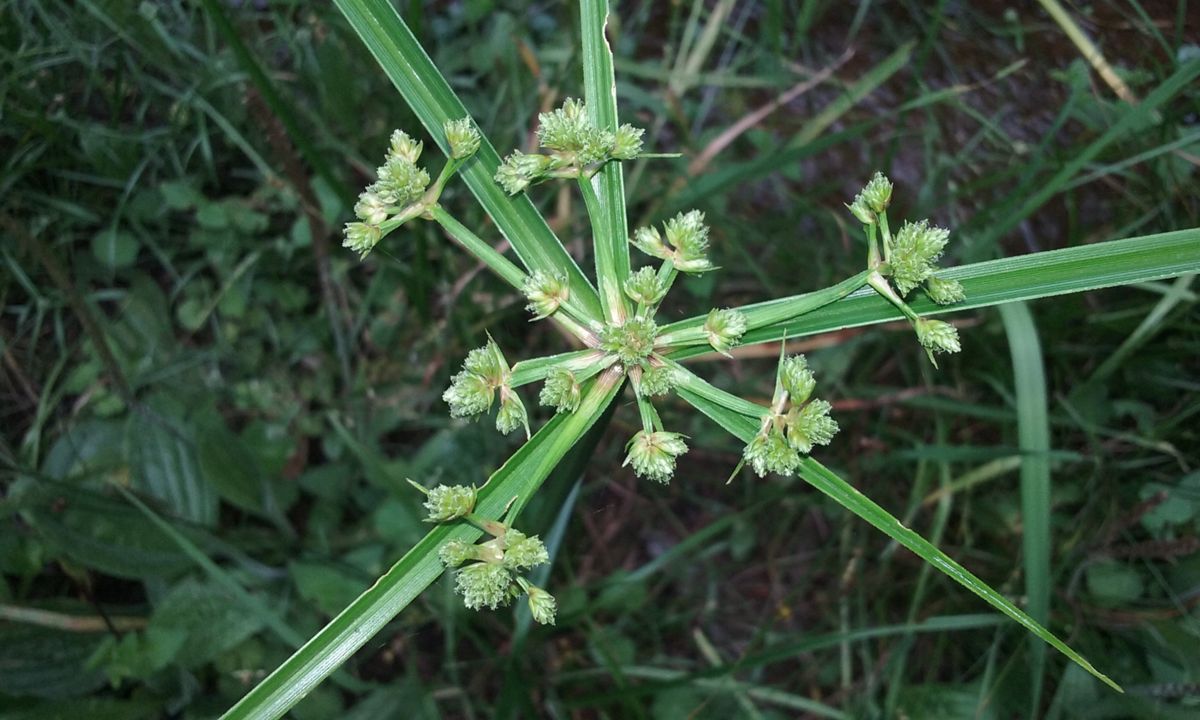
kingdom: Plantae
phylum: Tracheophyta
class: Liliopsida
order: Poales
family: Cyperaceae
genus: Cyperus
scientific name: Cyperus megalanthus
